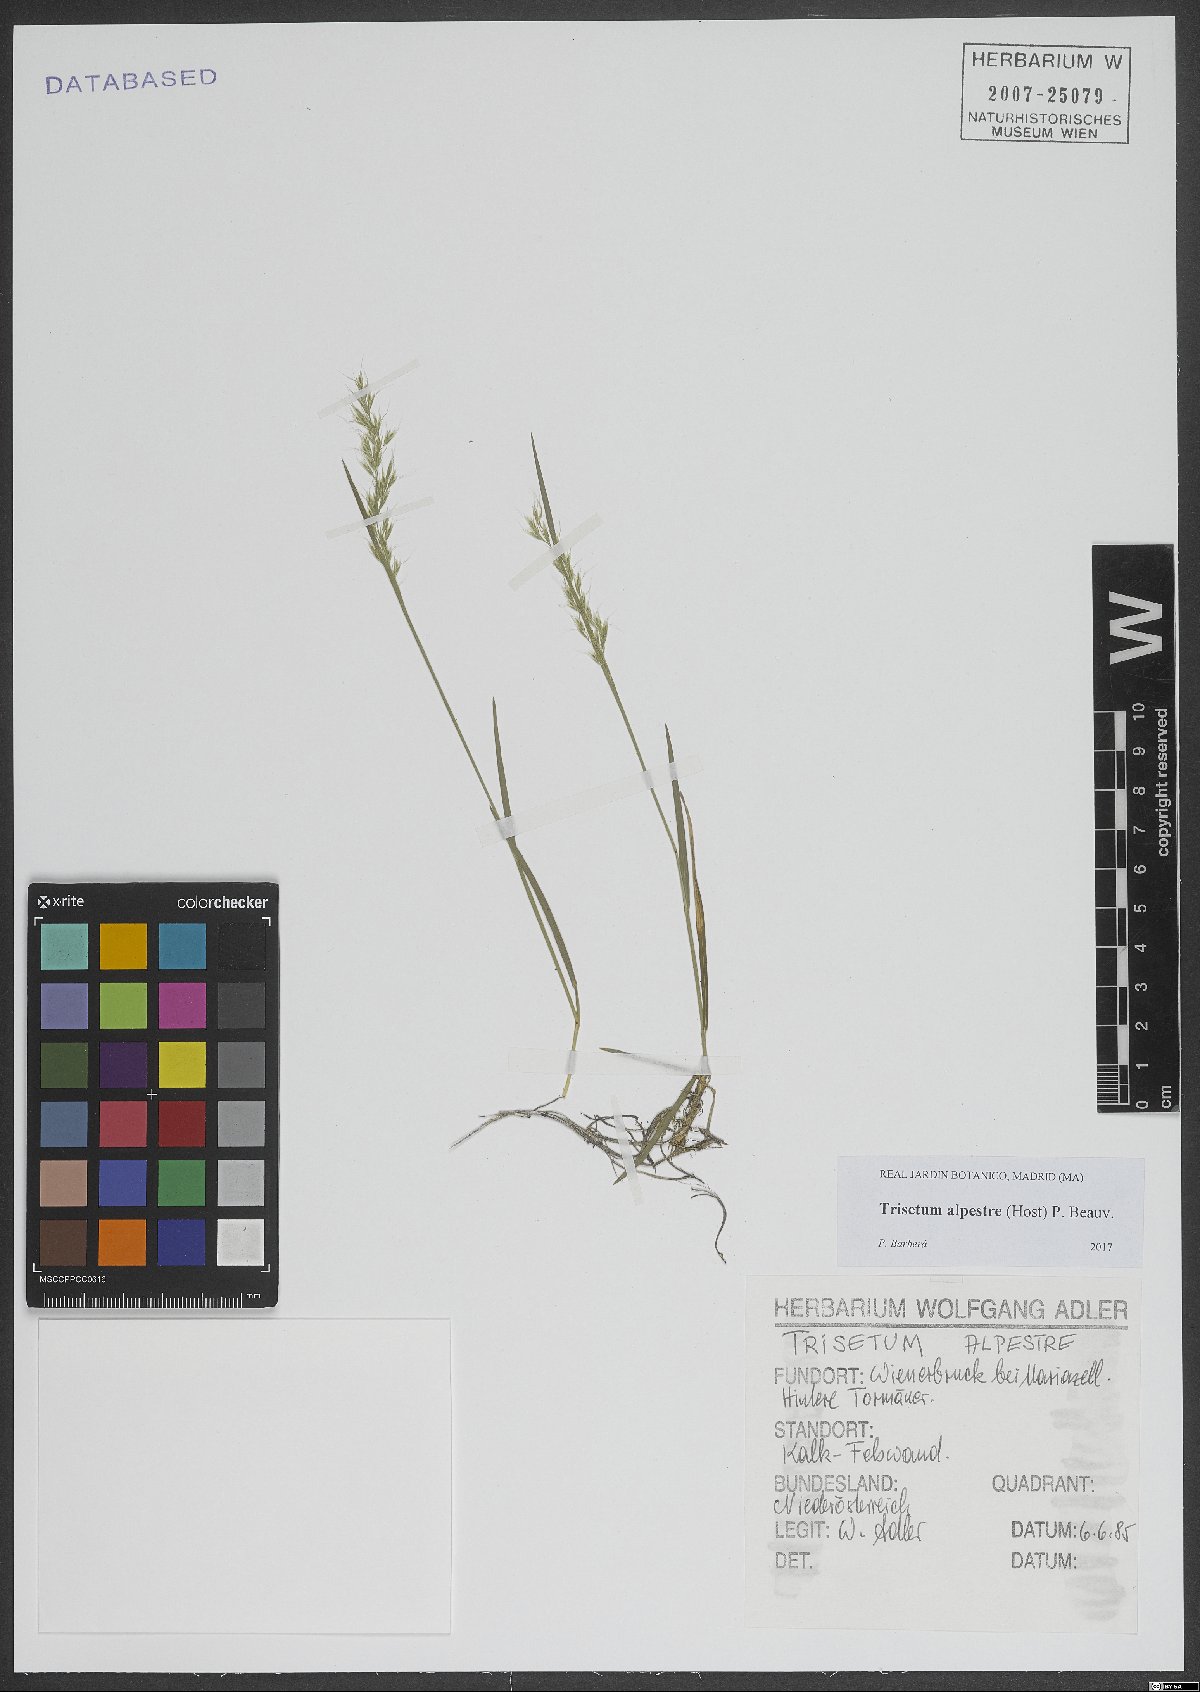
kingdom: Plantae
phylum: Tracheophyta
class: Liliopsida
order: Poales
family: Poaceae
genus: Trisetum
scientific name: Trisetum alpestre
